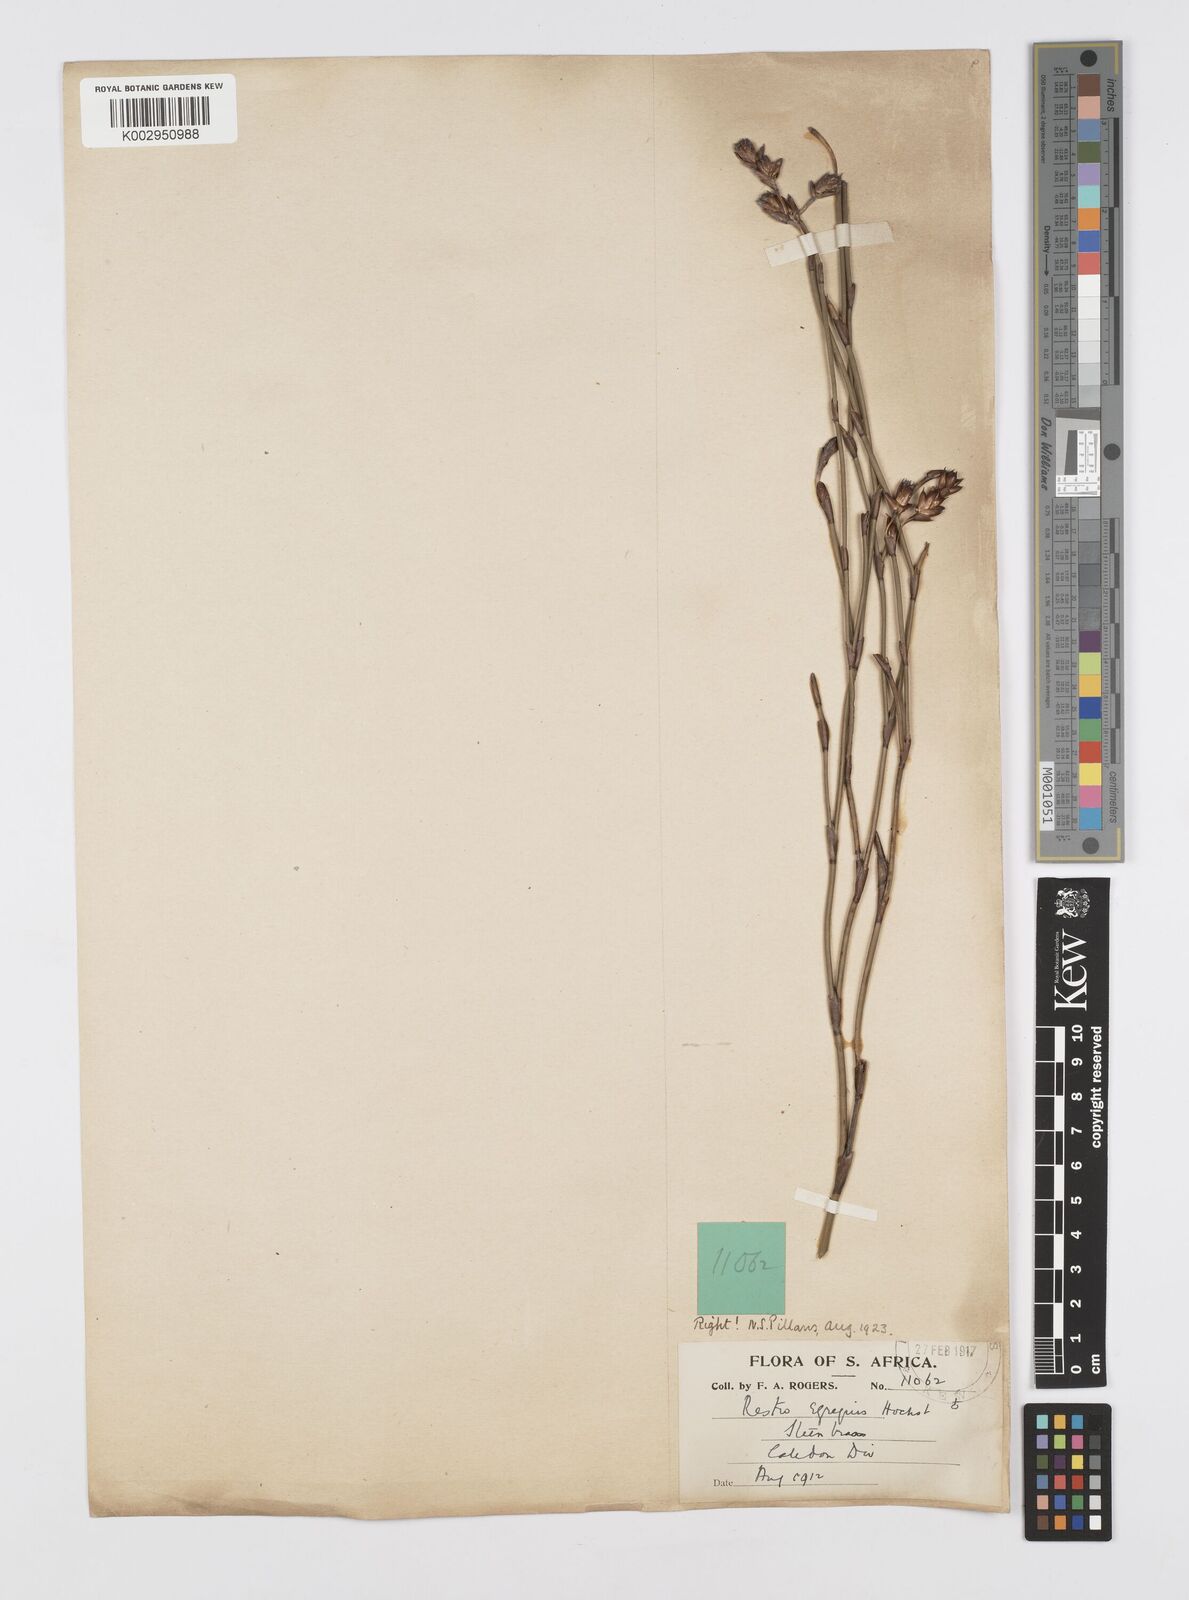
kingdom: Plantae
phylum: Tracheophyta
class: Liliopsida
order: Poales
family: Restionaceae
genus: Restio
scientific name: Restio egregius
